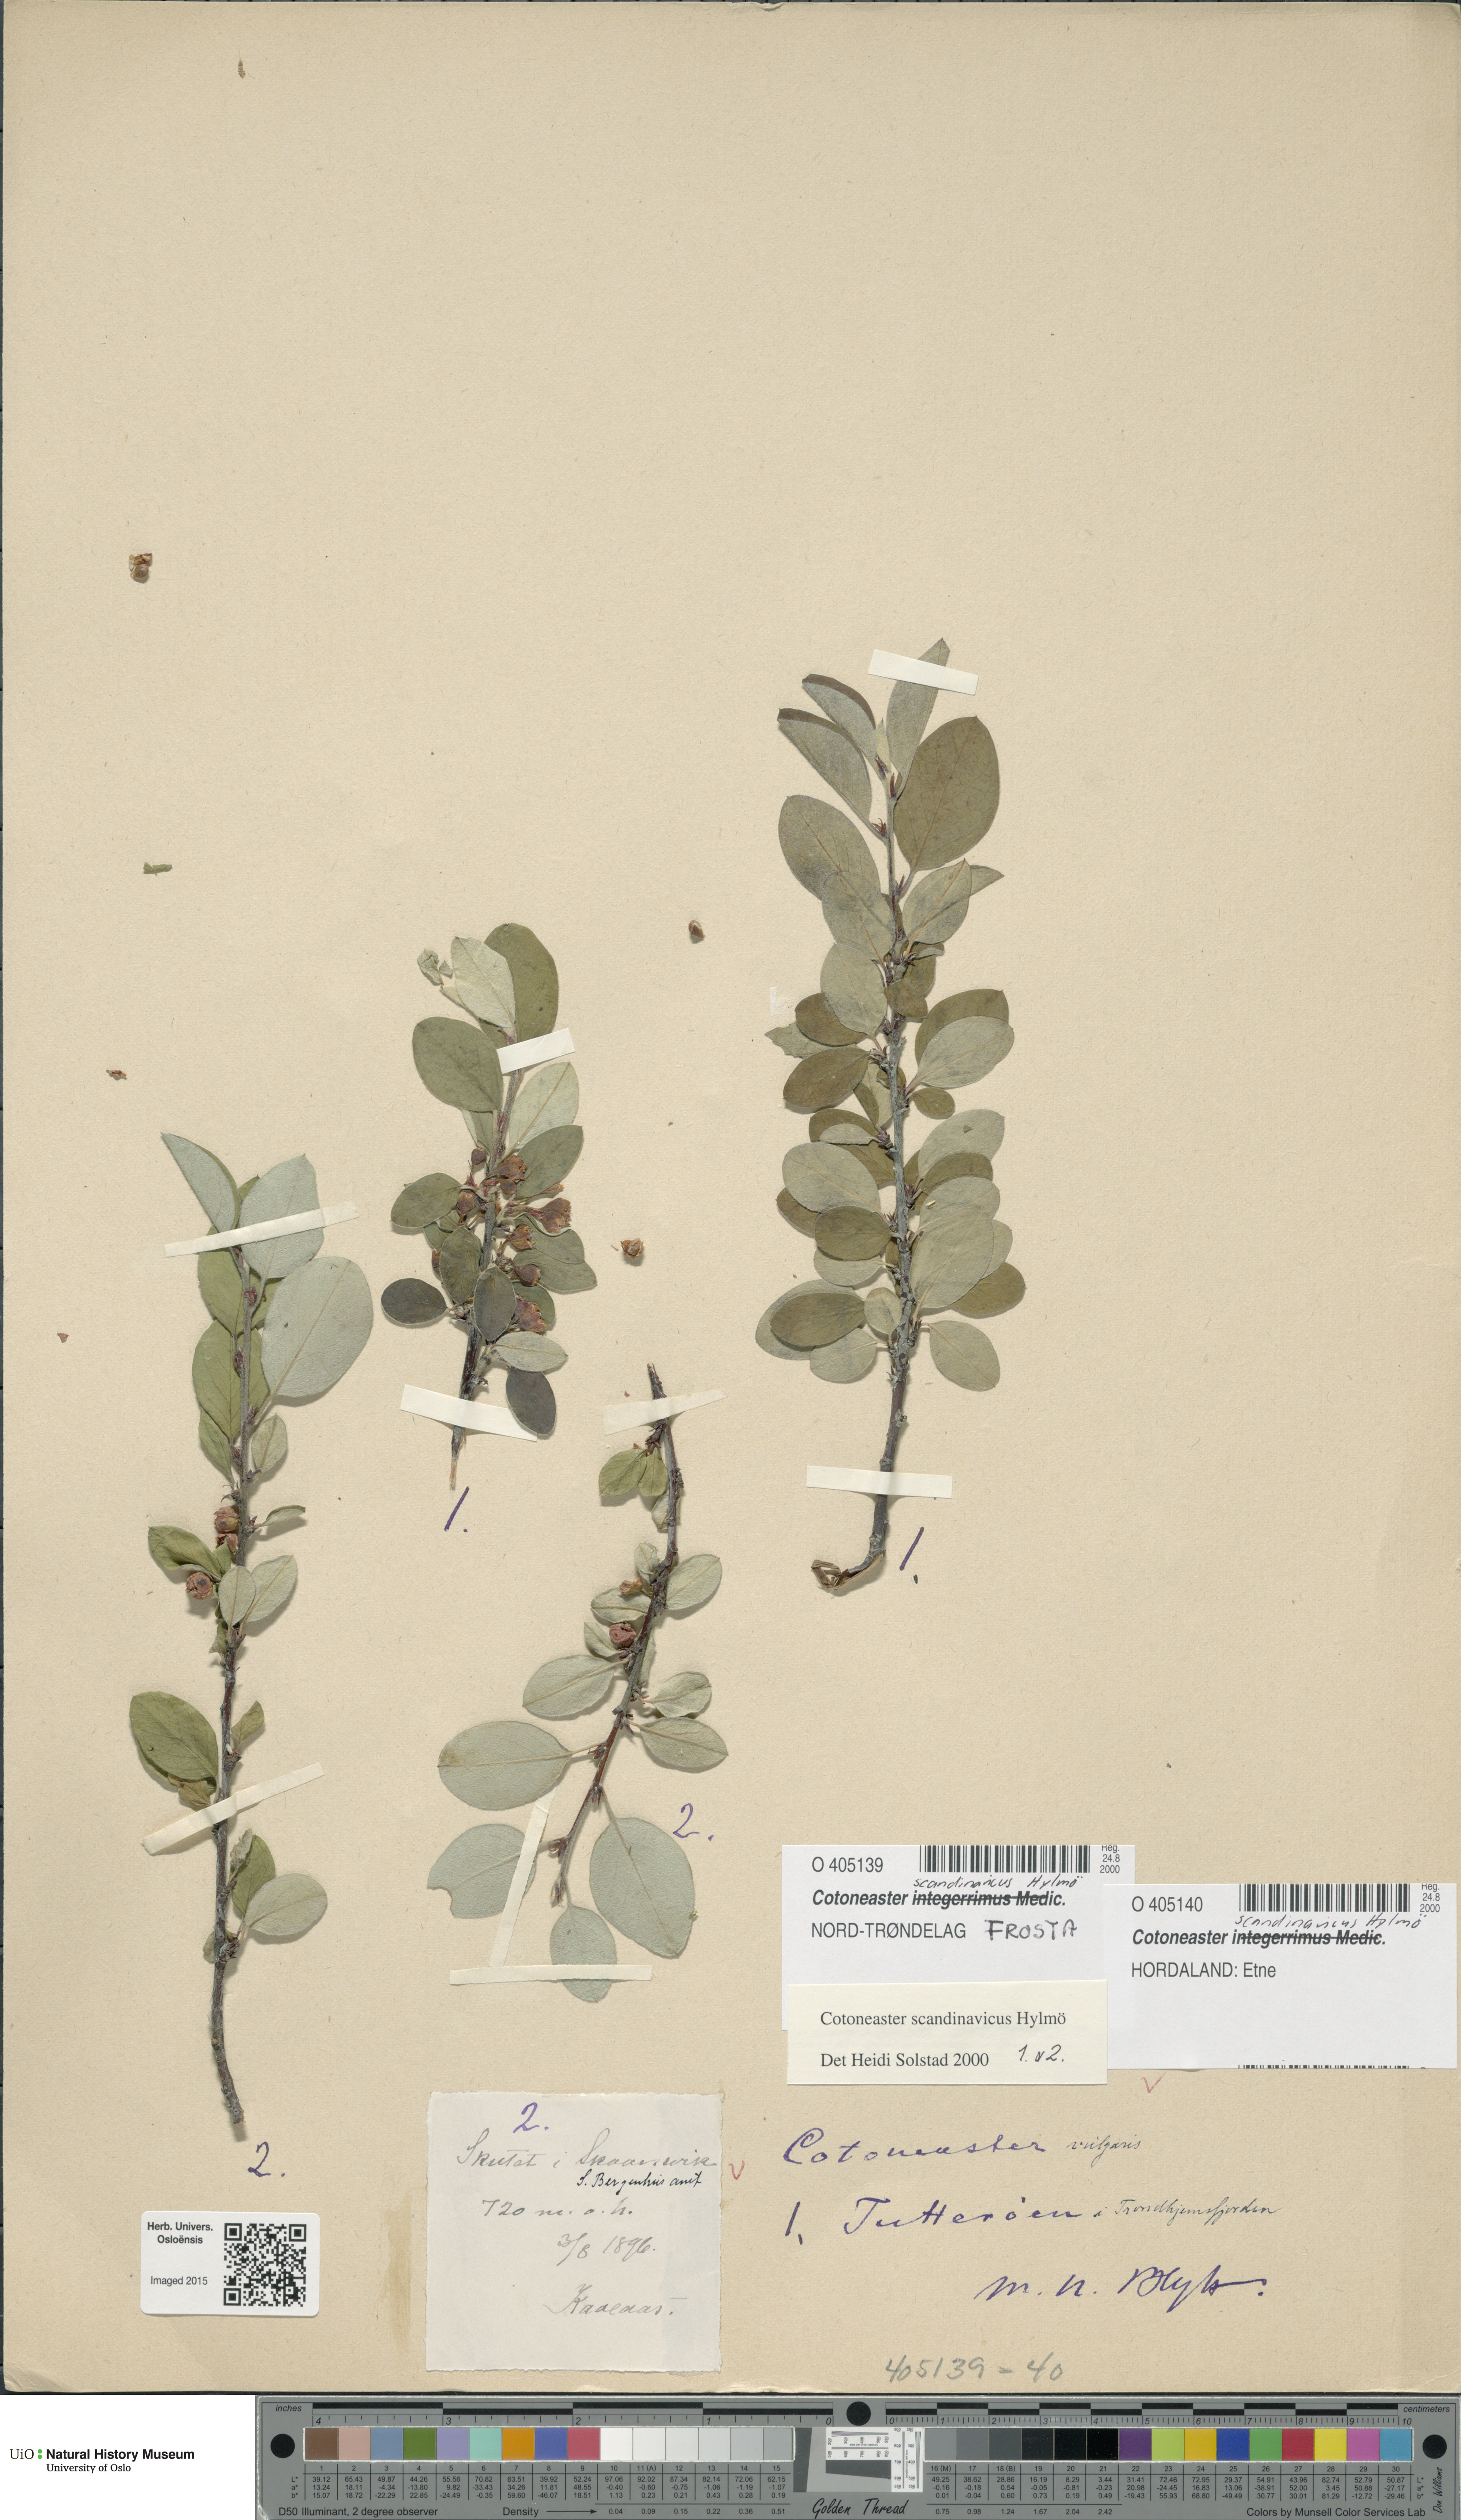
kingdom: Plantae
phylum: Tracheophyta
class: Magnoliopsida
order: Rosales
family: Rosaceae
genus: Cotoneaster
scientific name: Cotoneaster integerrimus
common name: Wild cotoneaster
